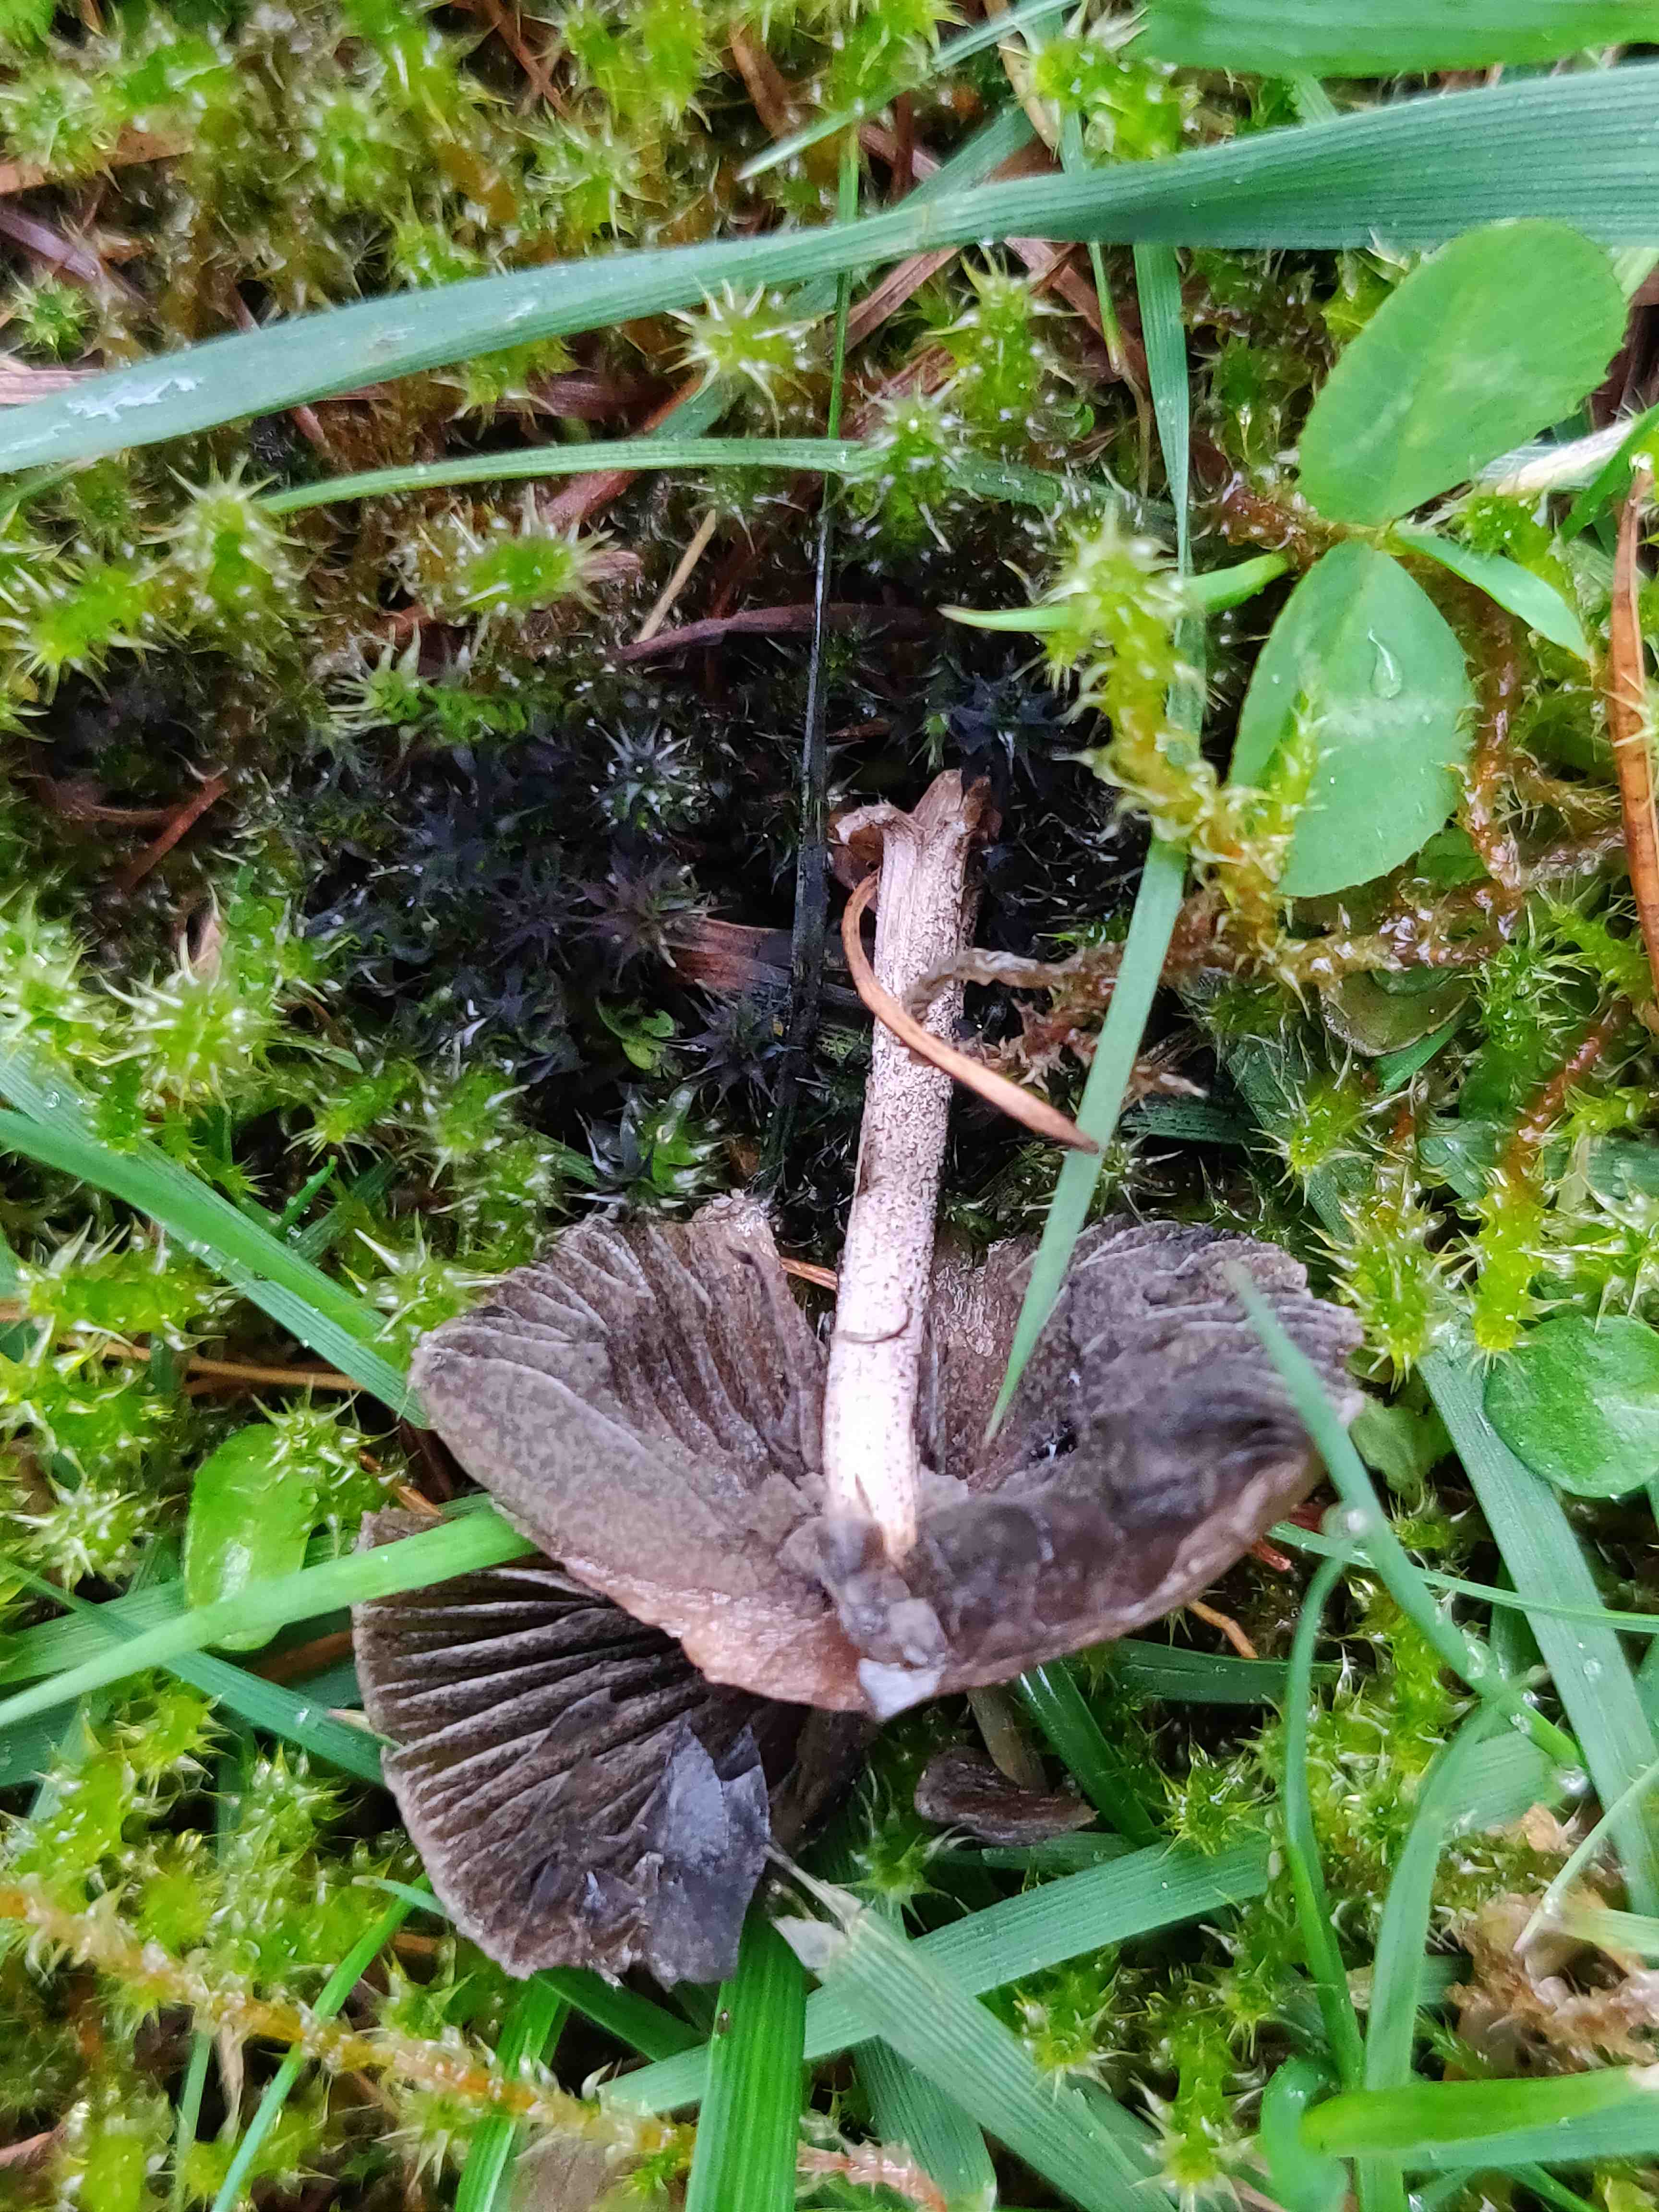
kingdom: Fungi
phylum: Basidiomycota
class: Agaricomycetes
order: Agaricales
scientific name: Agaricales
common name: champignonordenen
